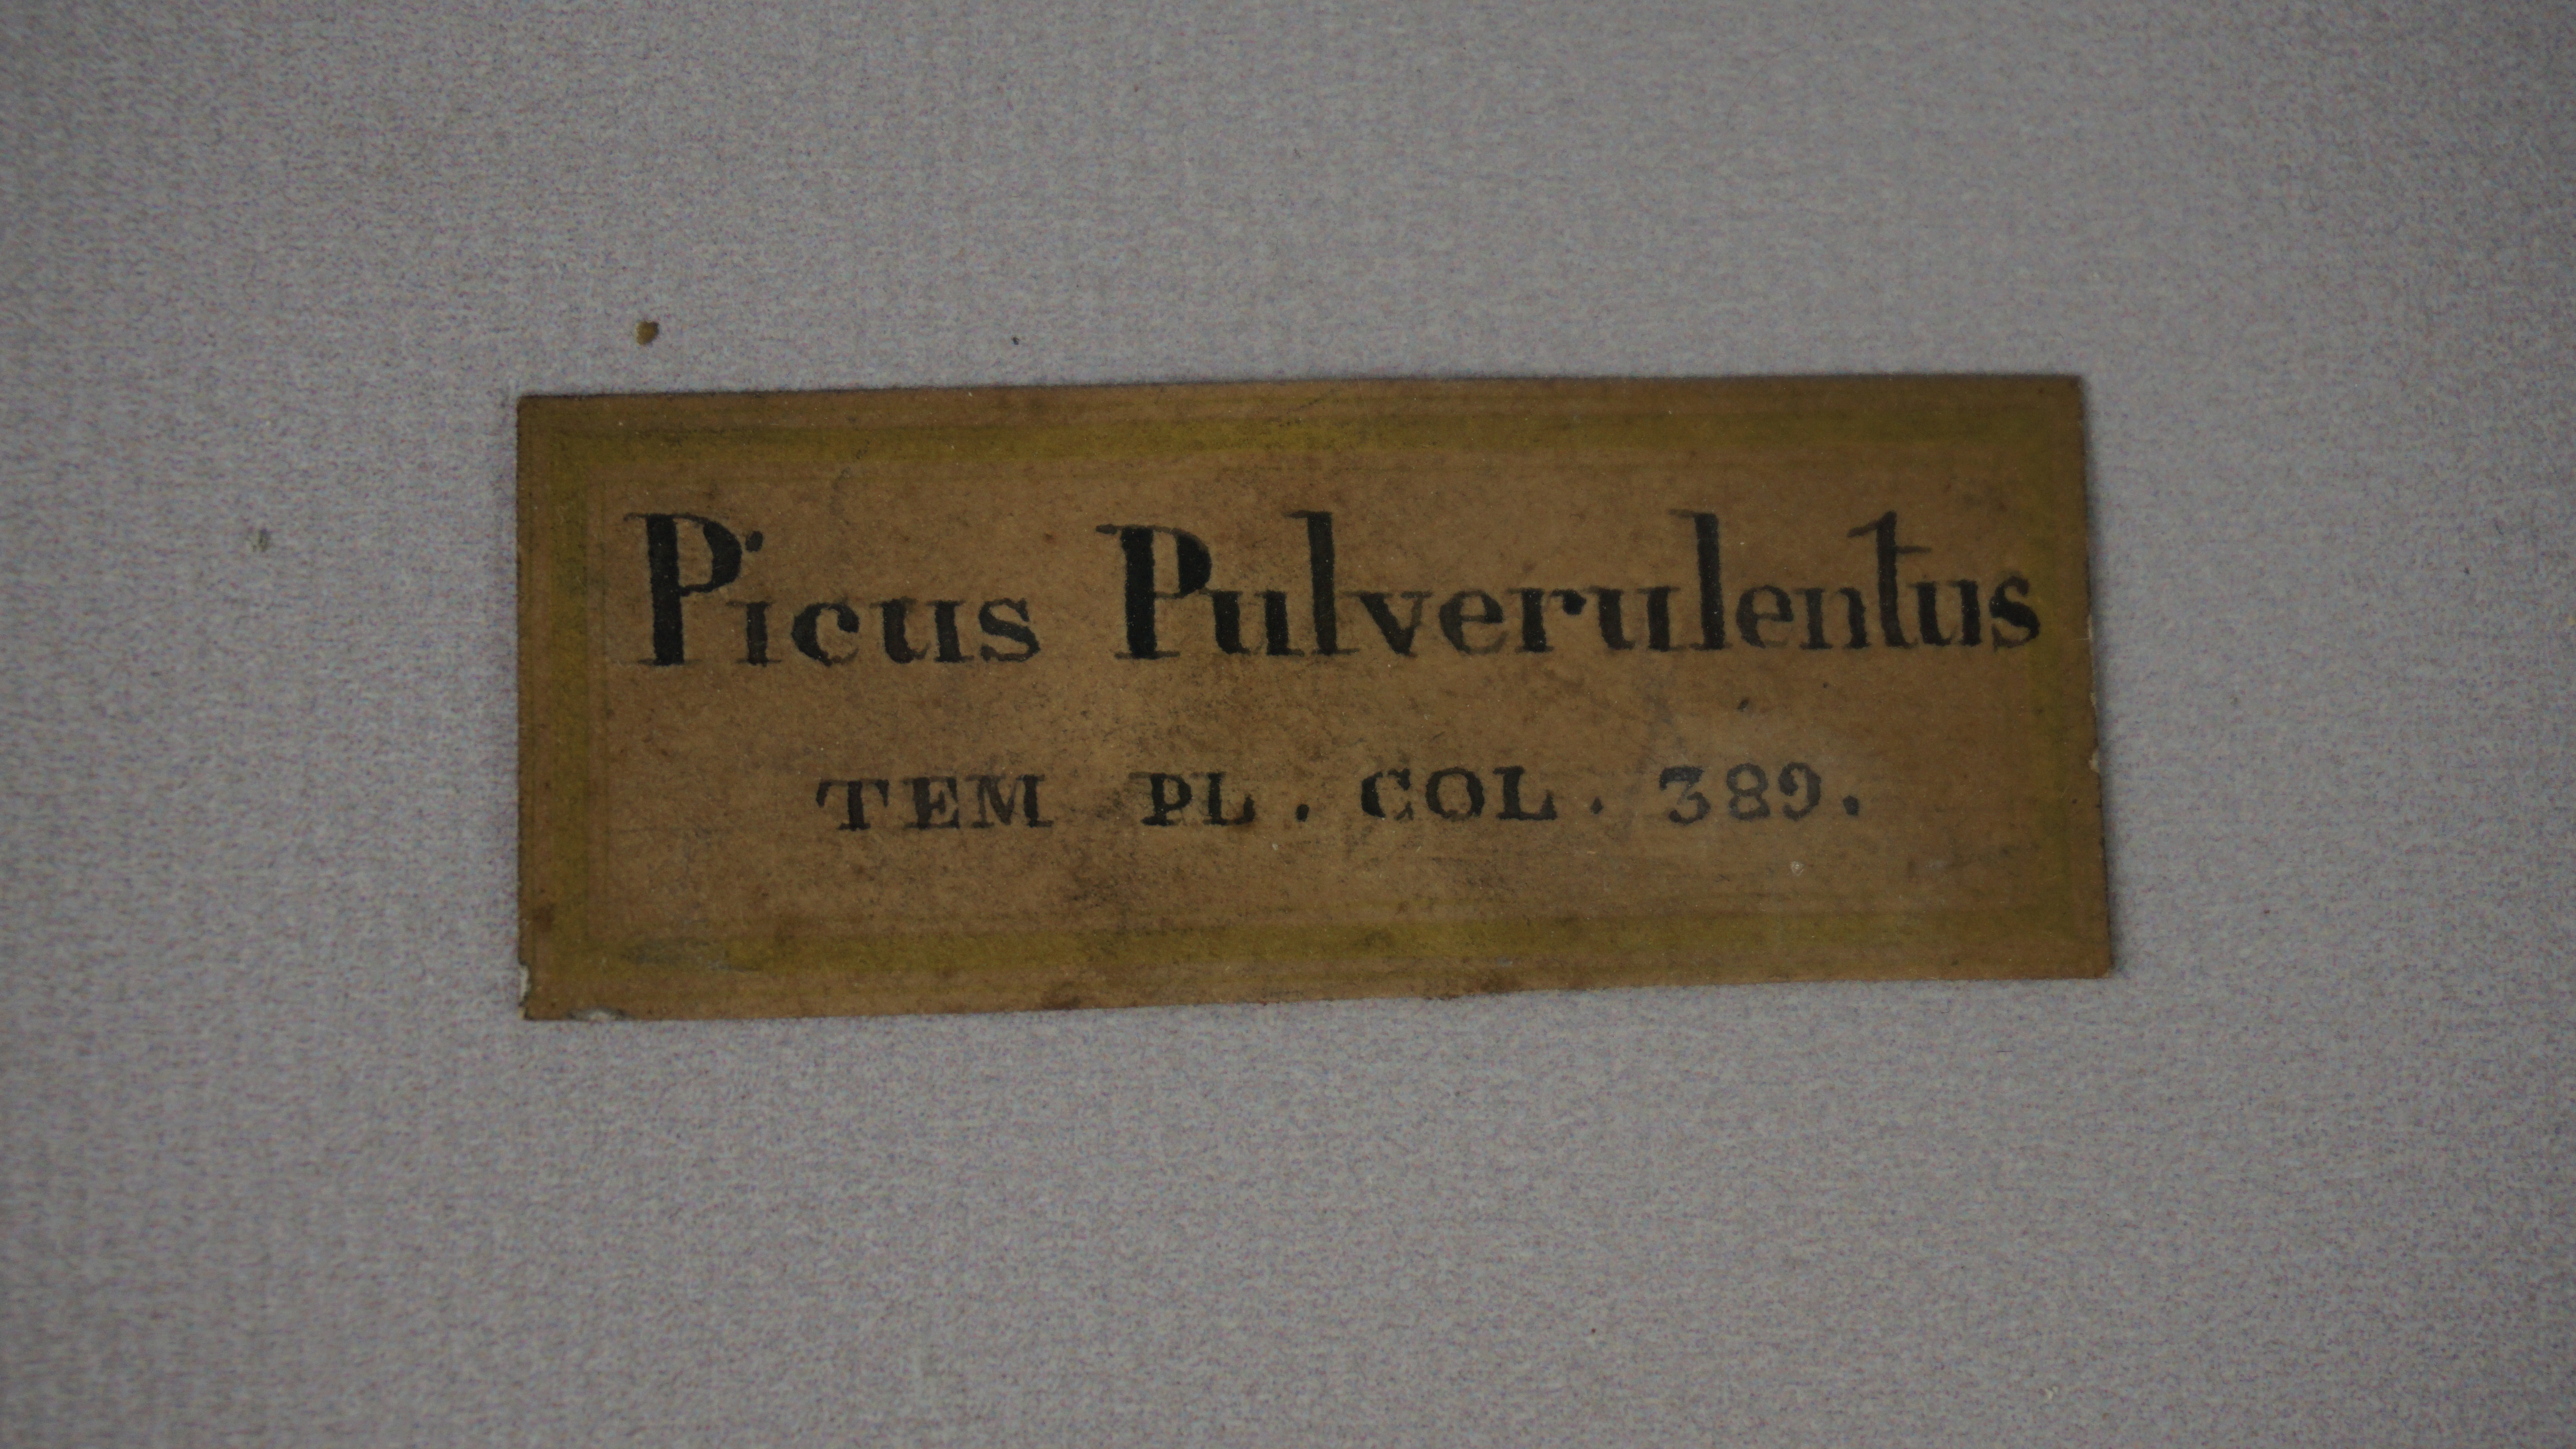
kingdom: Animalia
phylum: Chordata
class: Aves
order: Piciformes
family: Picidae
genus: Mulleripicus
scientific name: Mulleripicus pulverulentus
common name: Great slaty woodpecker
